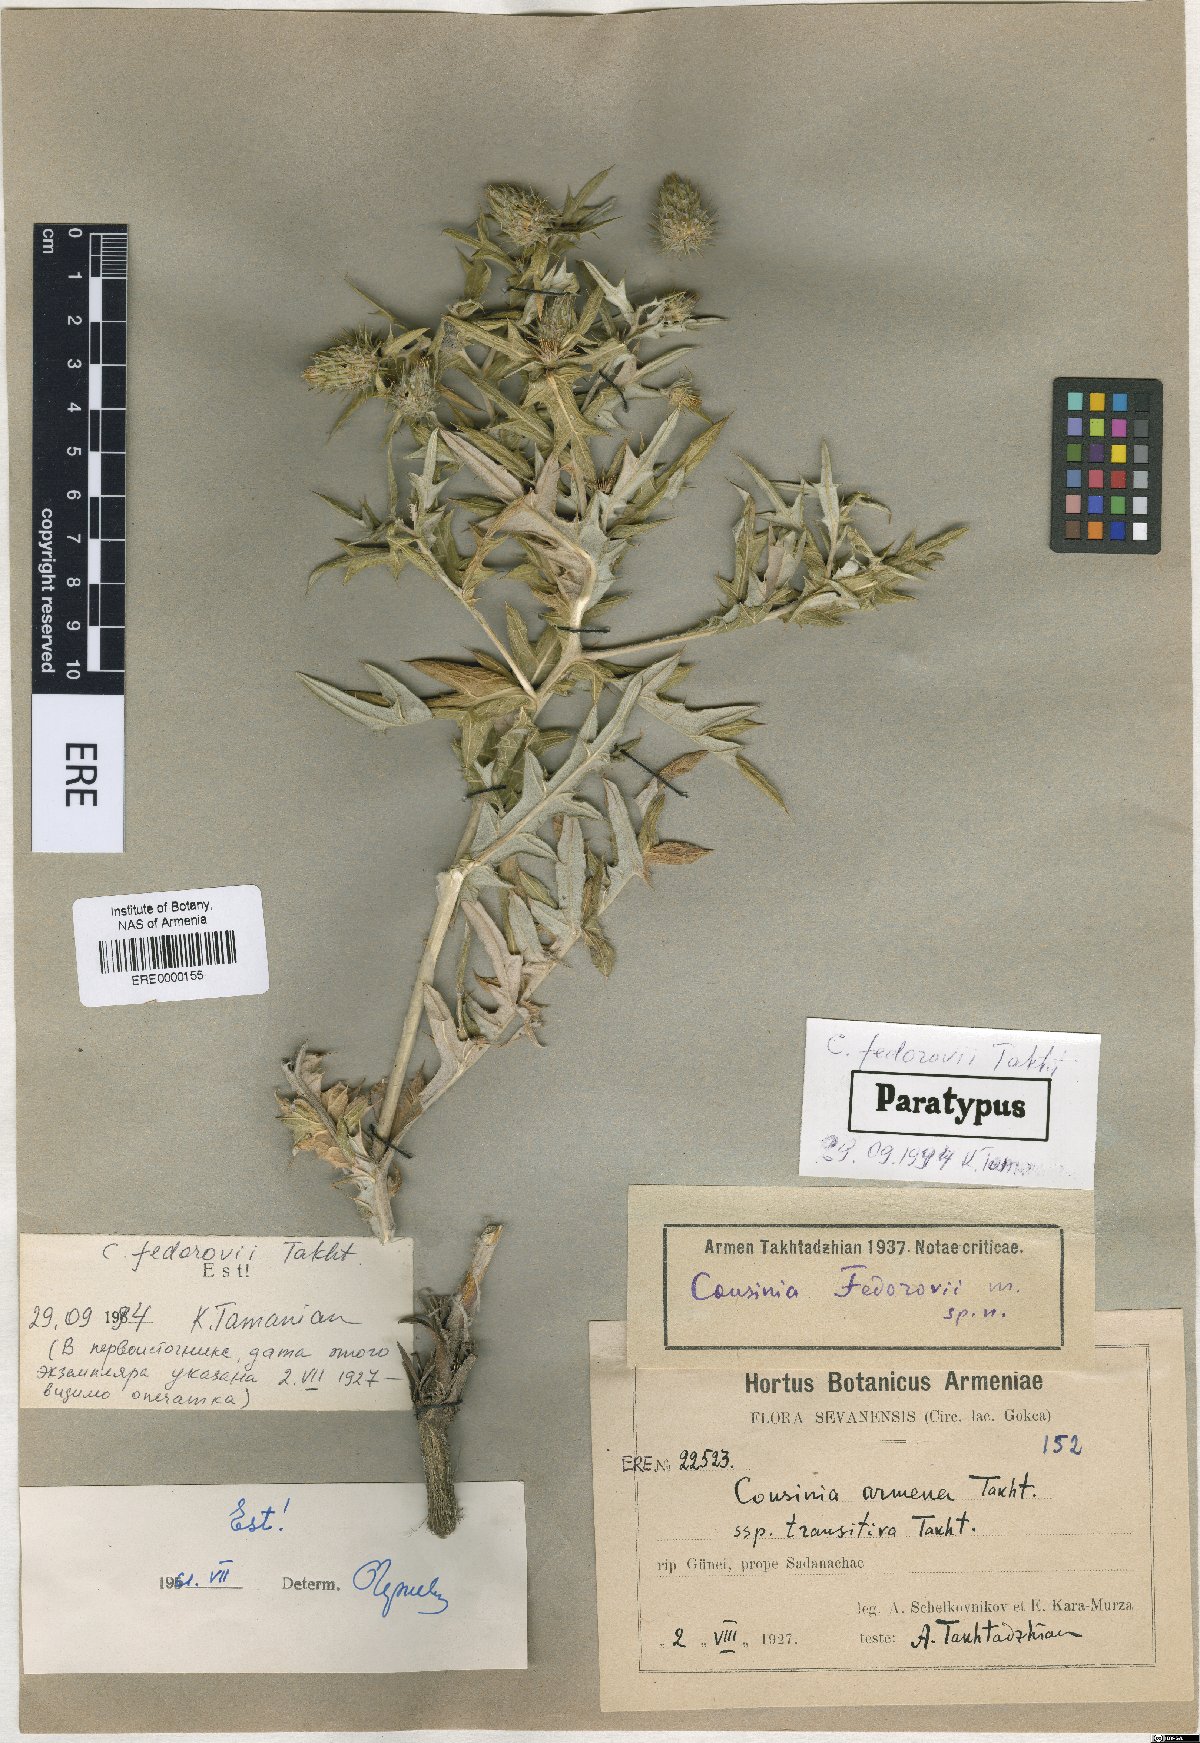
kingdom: Plantae
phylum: Tracheophyta
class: Magnoliopsida
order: Asterales
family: Asteraceae
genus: Cousinia
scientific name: Cousinia fedorovii
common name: Fedorov's cousinia
